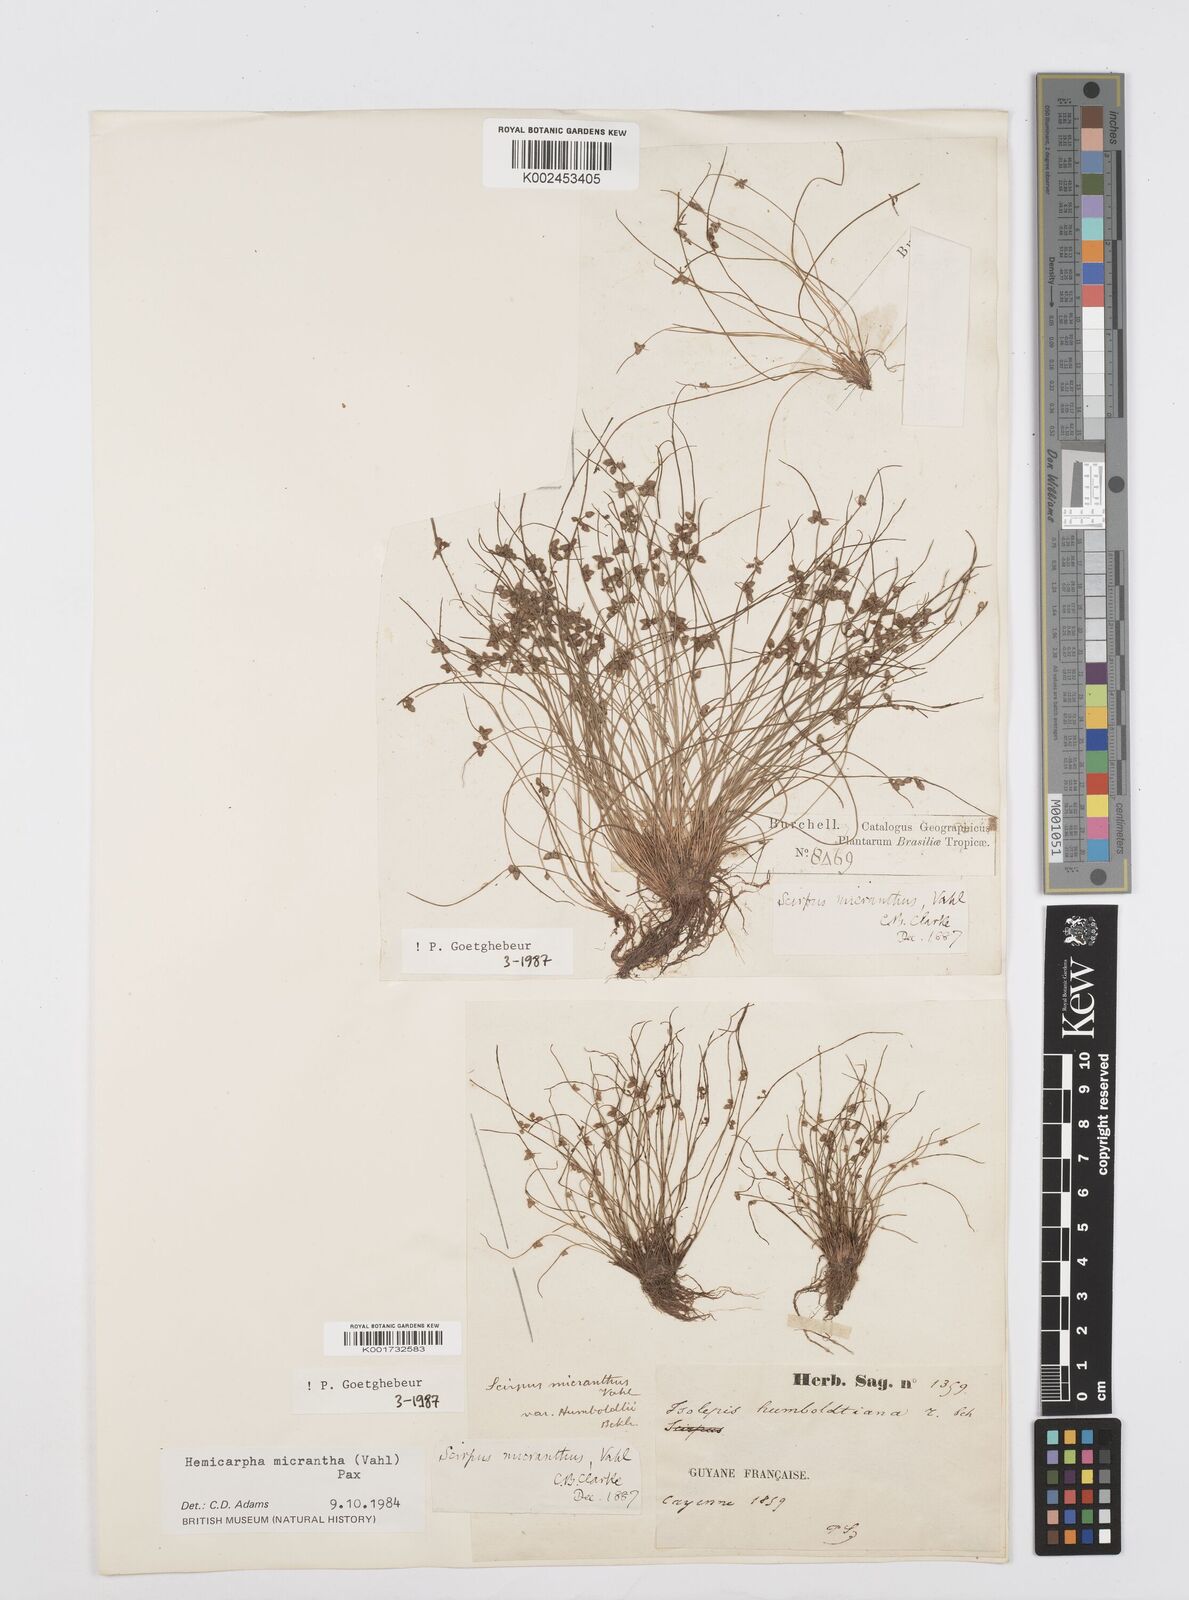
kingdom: Plantae
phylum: Tracheophyta
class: Liliopsida
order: Poales
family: Cyperaceae
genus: Cyperus
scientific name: Cyperus dentatus
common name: Dentate umbrella sedge
